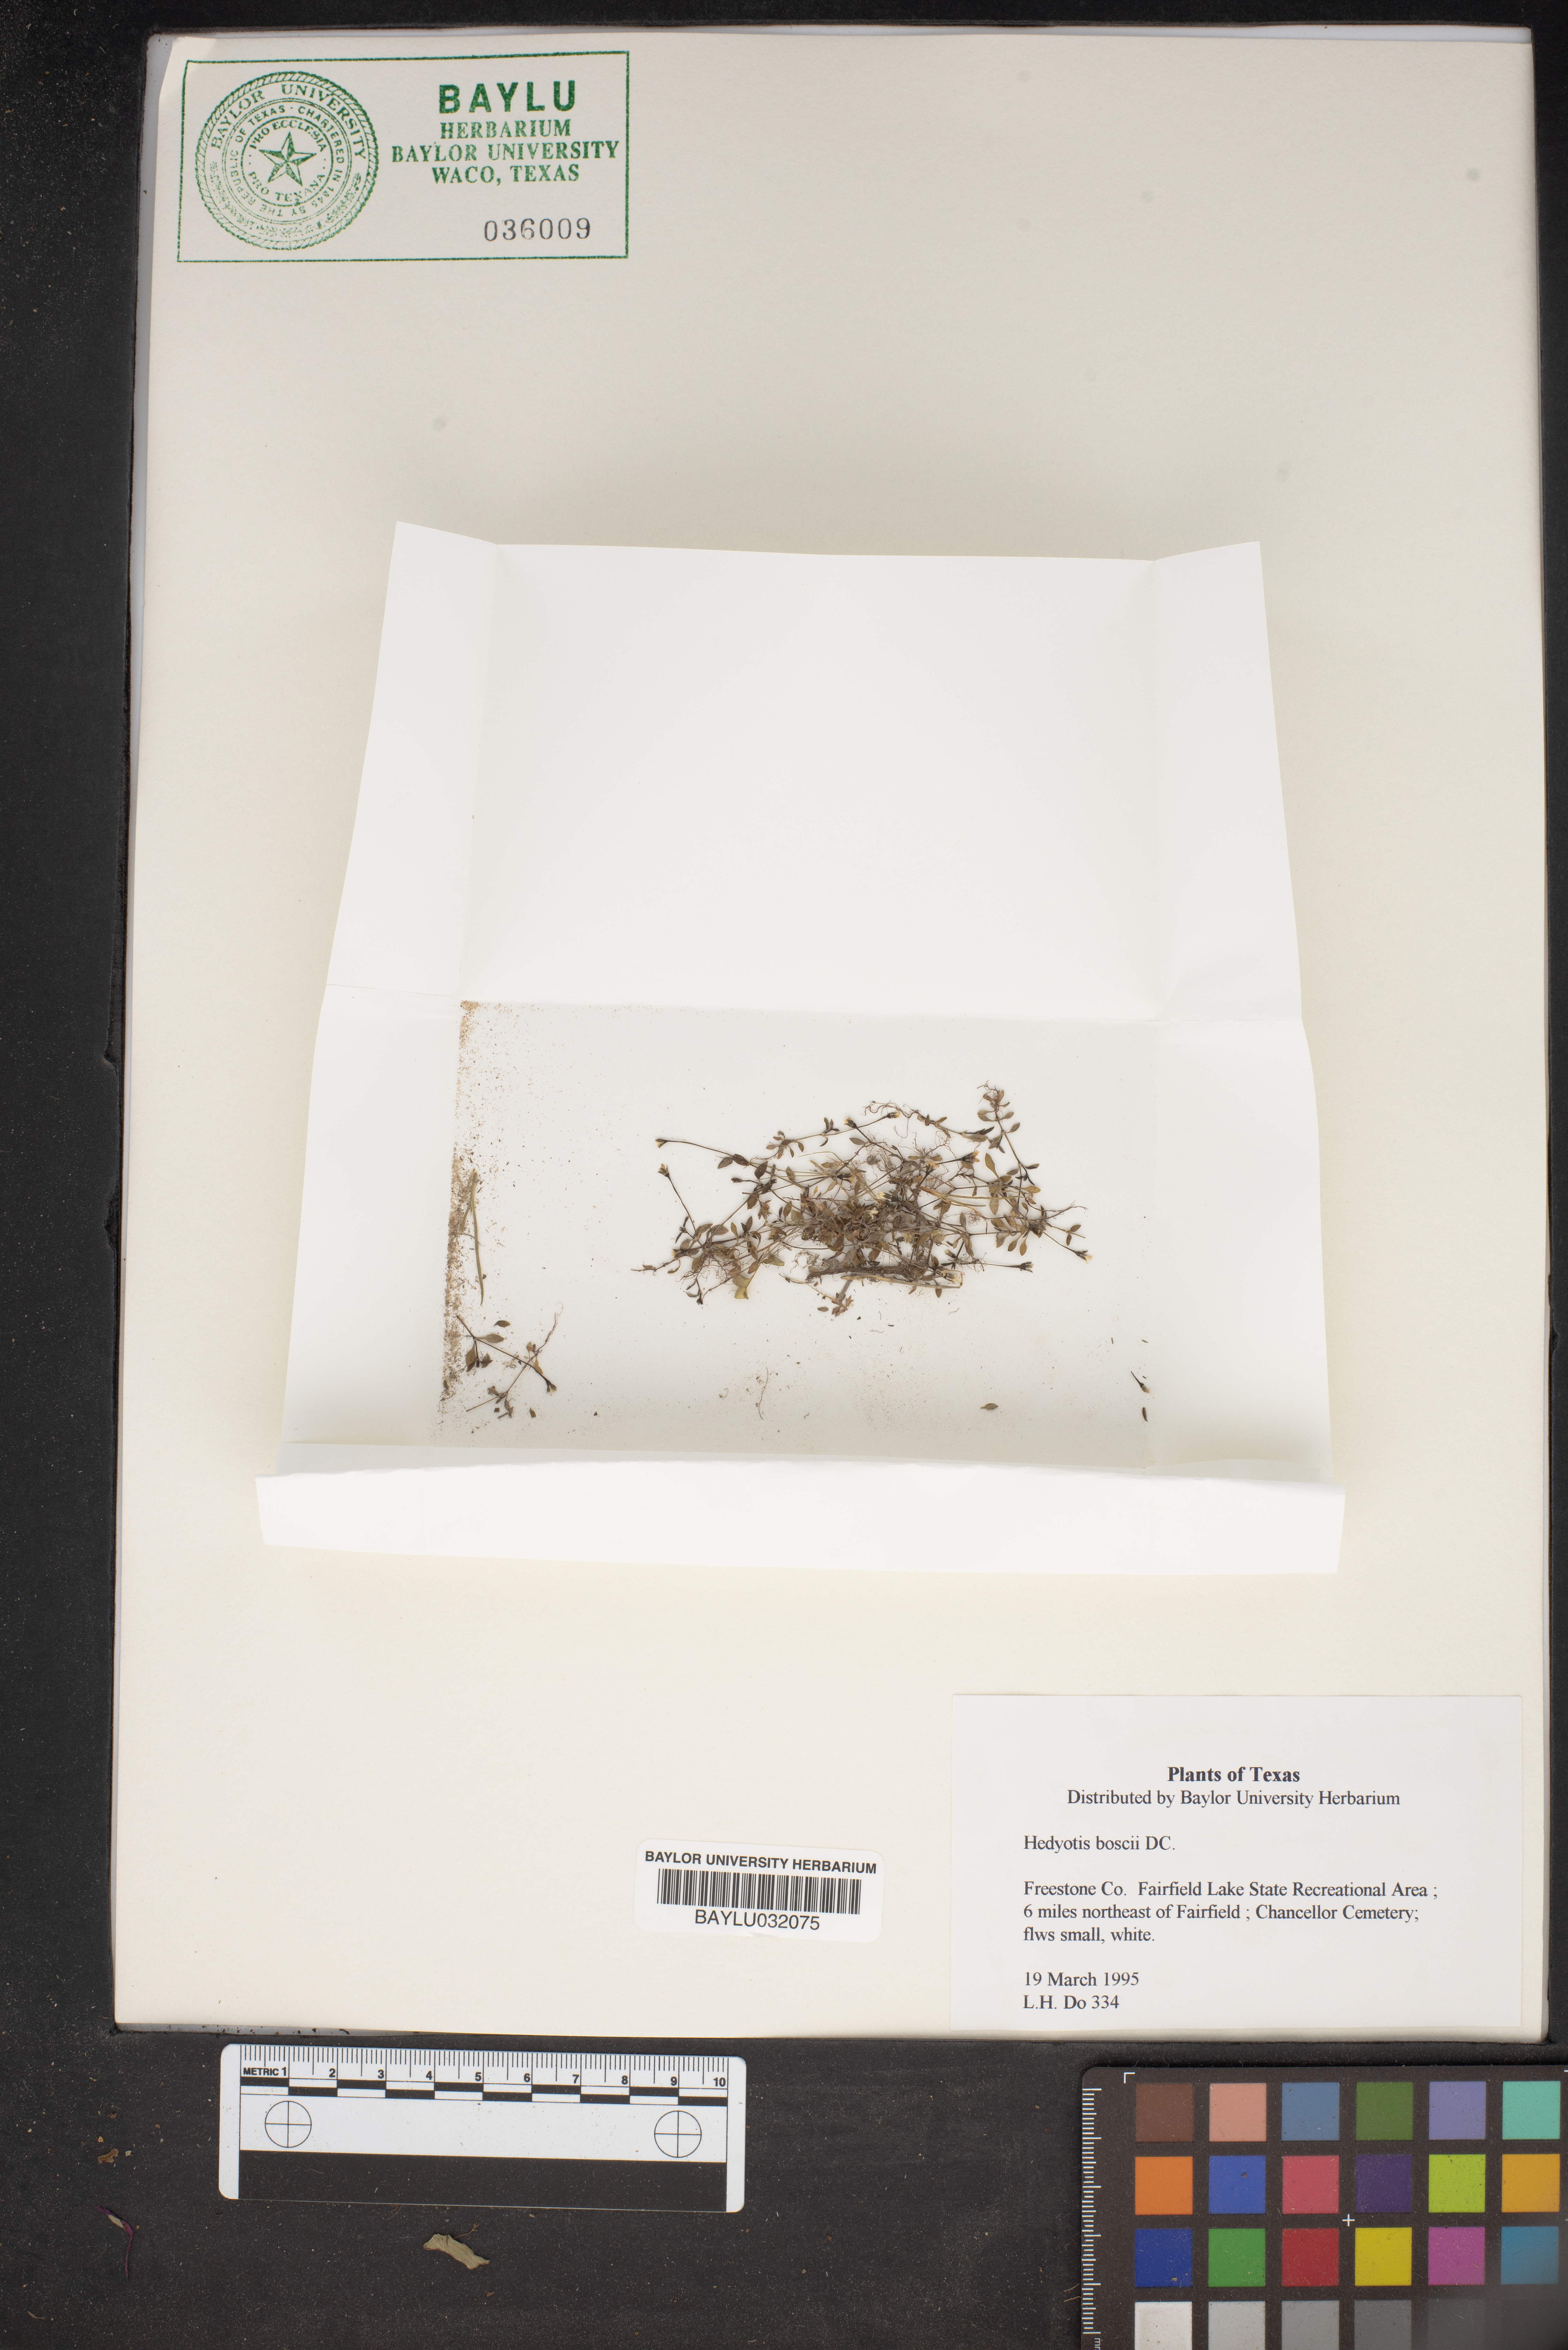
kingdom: Plantae
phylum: Tracheophyta
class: Magnoliopsida
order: Gentianales
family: Rubiaceae
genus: Oldenlandia
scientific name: Oldenlandia boscii
